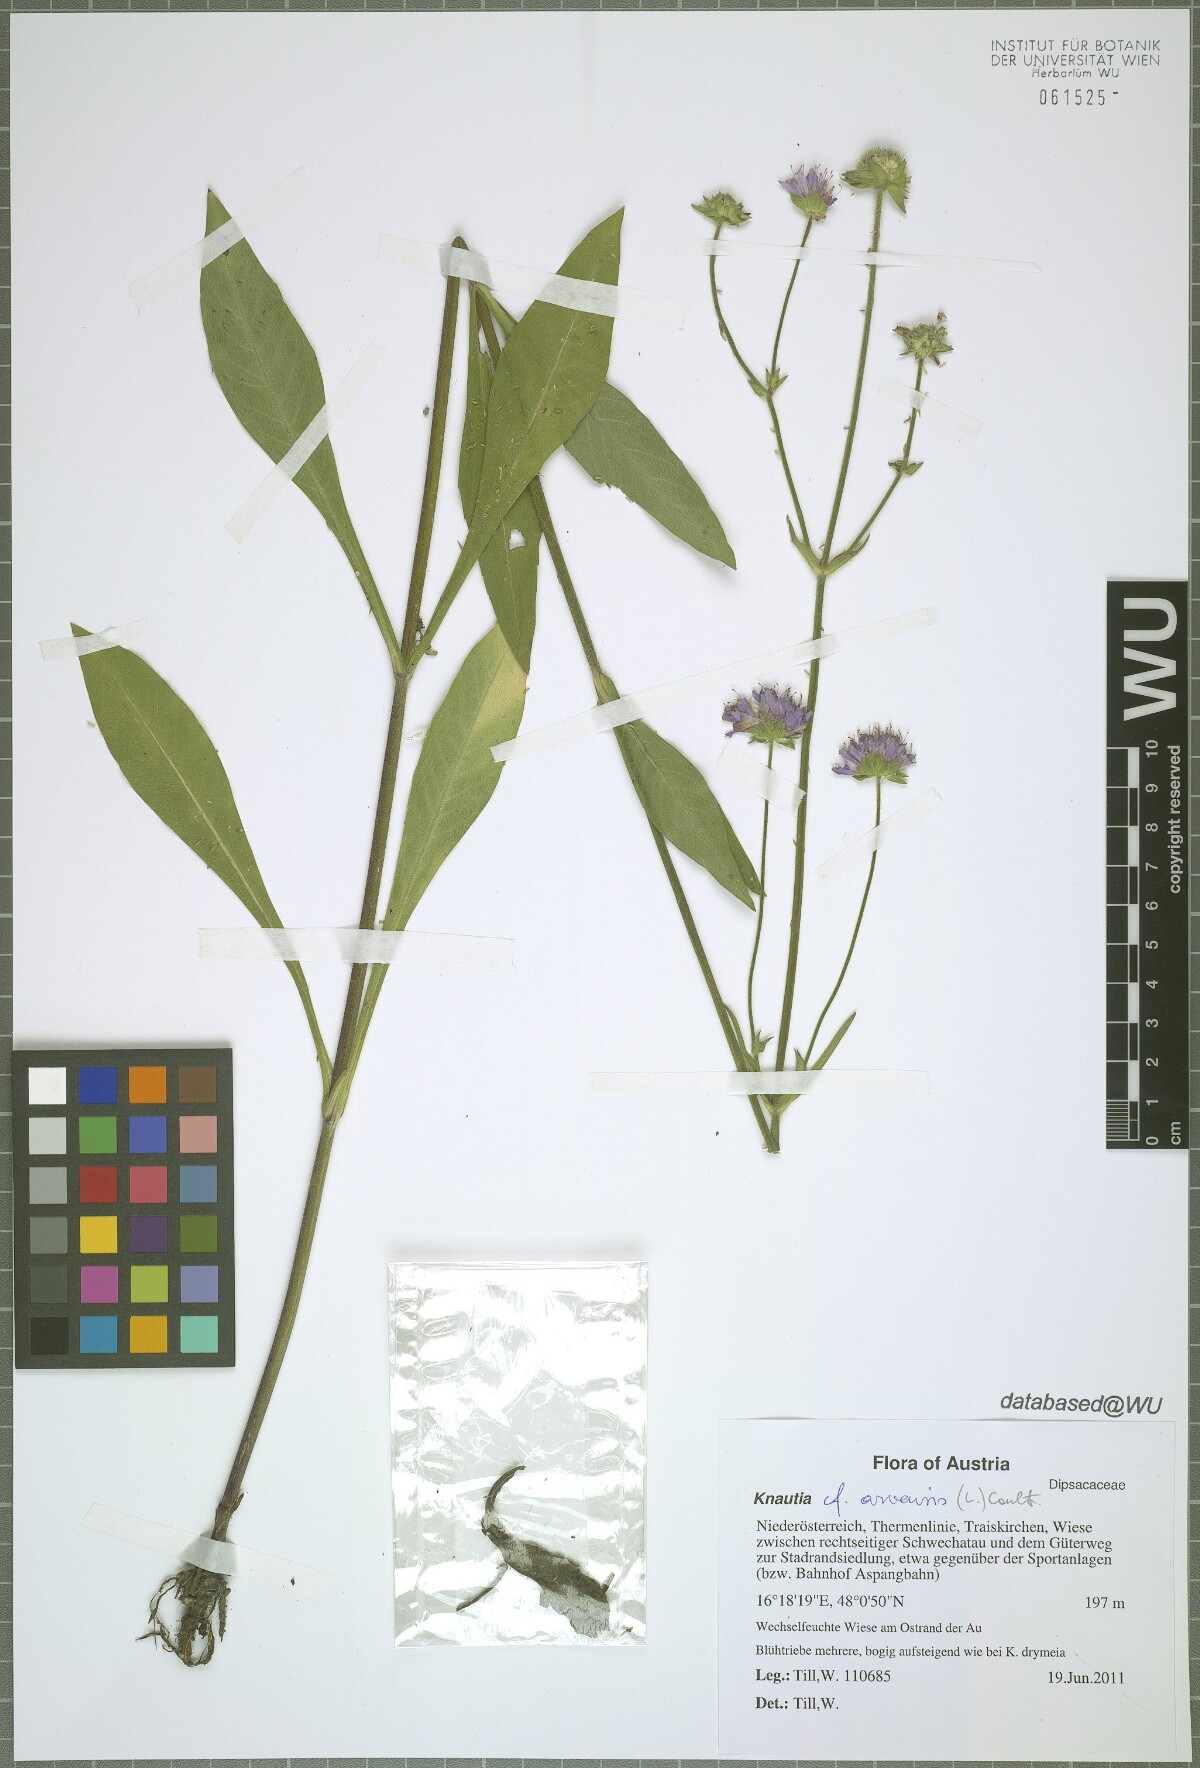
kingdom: Plantae
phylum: Tracheophyta
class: Magnoliopsida
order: Dipsacales
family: Caprifoliaceae
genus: Knautia
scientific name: Knautia arvensis
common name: Field scabiosa
